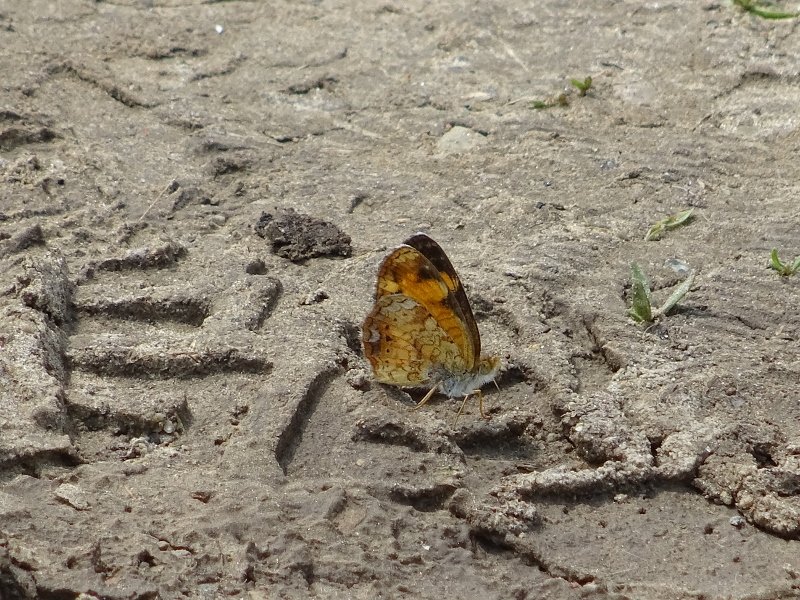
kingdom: Animalia
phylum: Arthropoda
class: Insecta
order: Lepidoptera
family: Nymphalidae
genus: Phyciodes
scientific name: Phyciodes tharos
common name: Pearl Crescent
